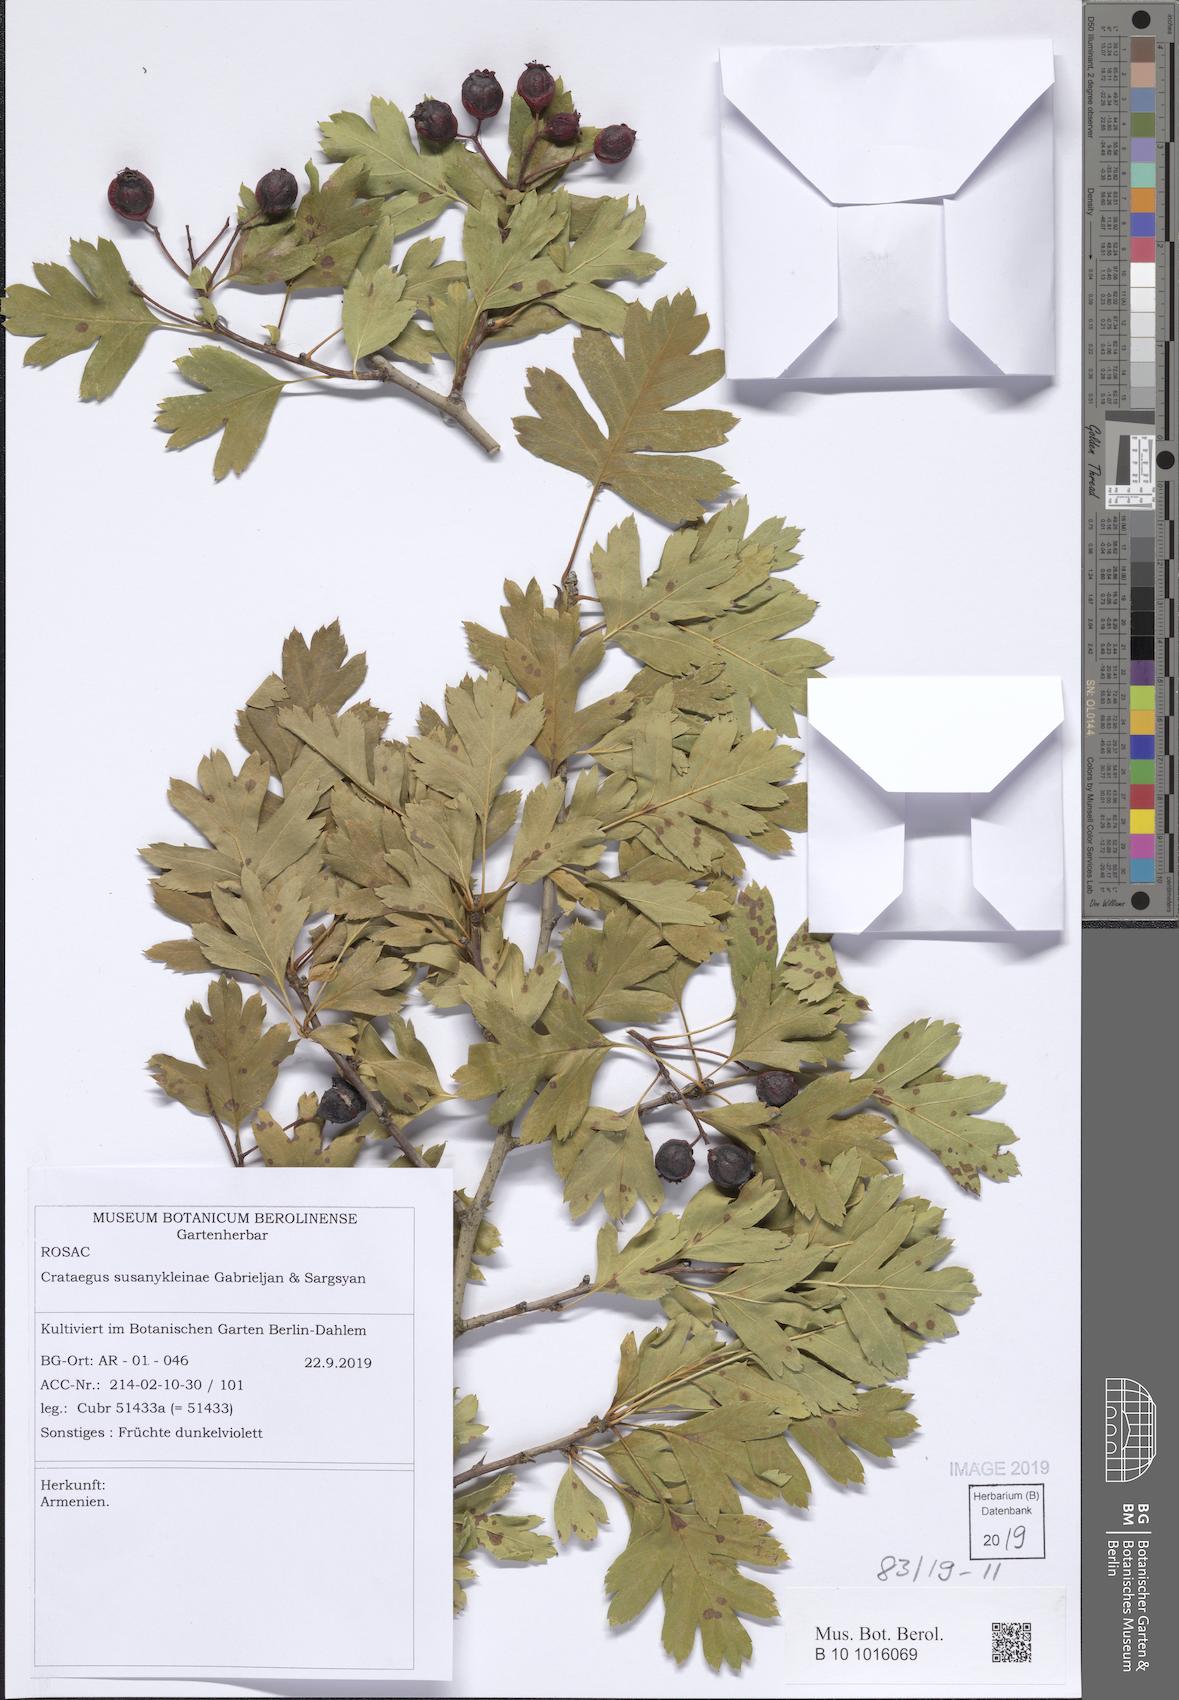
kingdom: Plantae
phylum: Tracheophyta
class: Magnoliopsida
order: Rosales
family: Rosaceae
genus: Crataegus
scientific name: Crataegus
